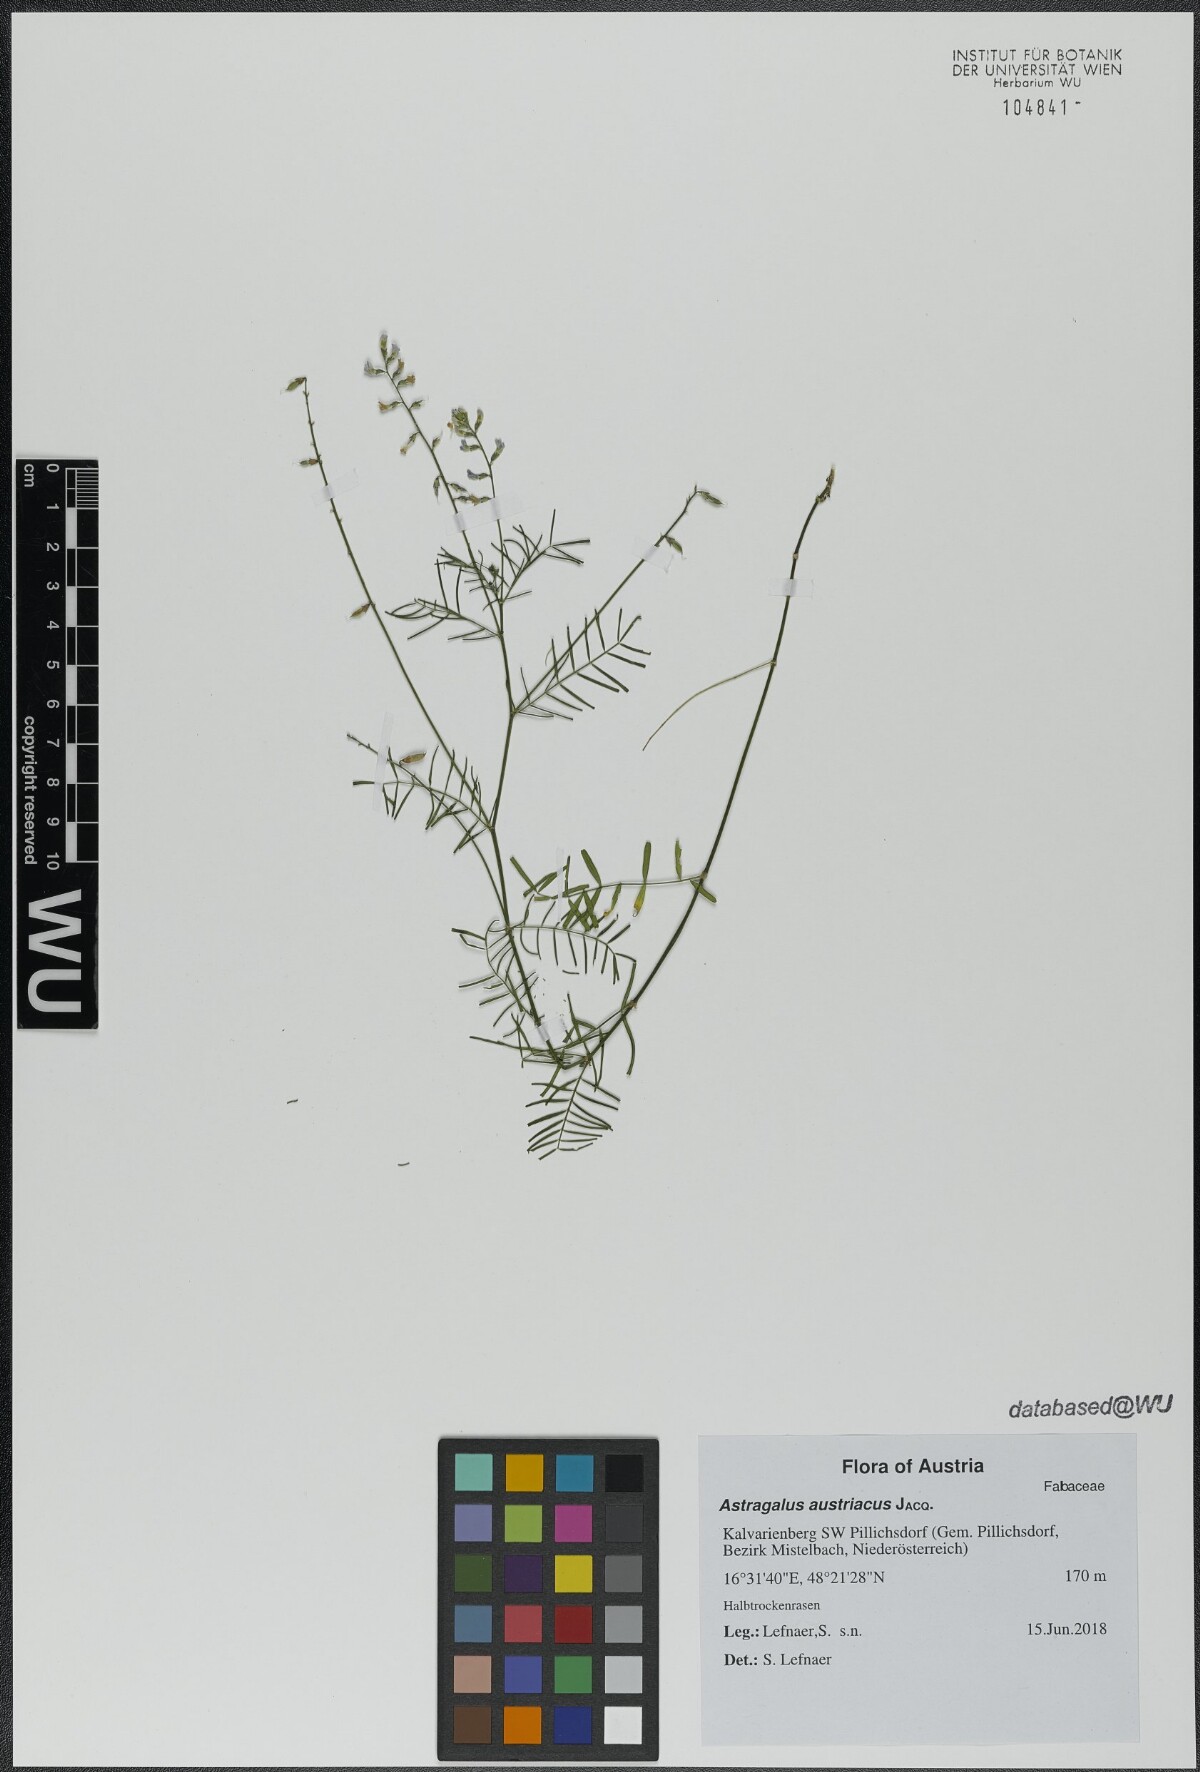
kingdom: Plantae
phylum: Tracheophyta
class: Magnoliopsida
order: Fabales
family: Fabaceae
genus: Astragalus
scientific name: Astragalus austriacus
